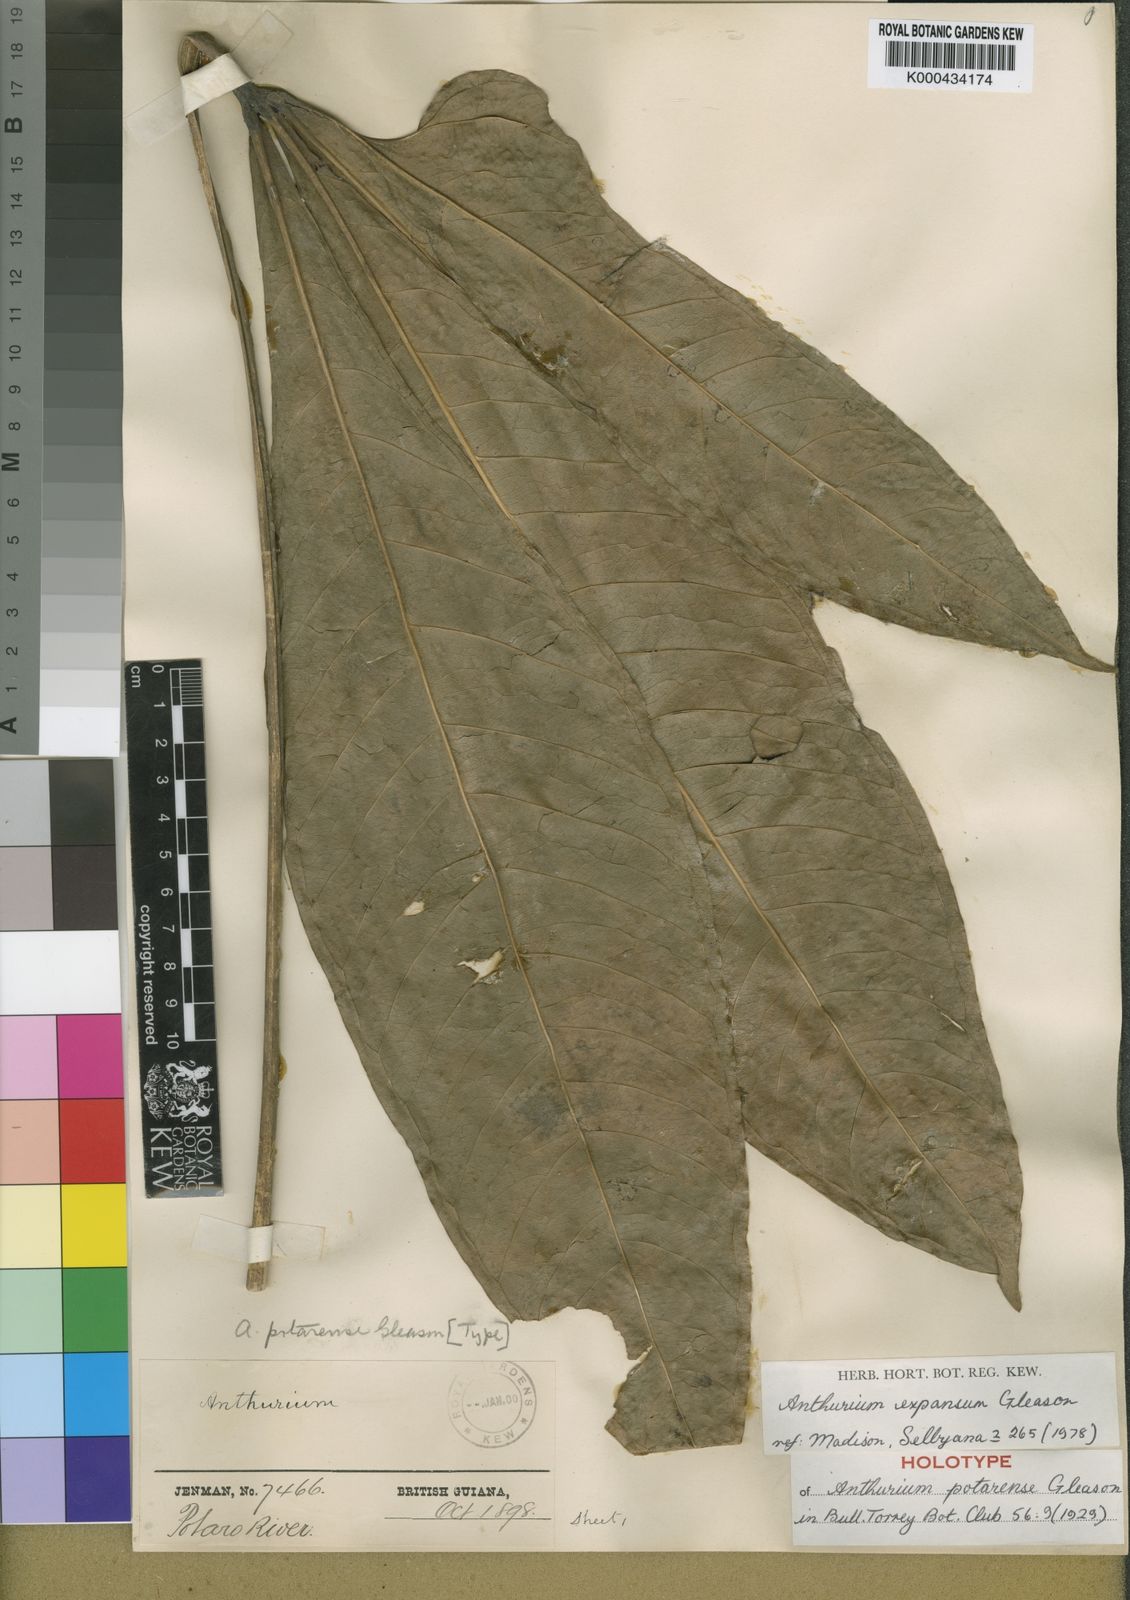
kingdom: Plantae
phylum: Tracheophyta
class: Liliopsida
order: Alismatales
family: Araceae
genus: Anthurium
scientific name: Anthurium expansum
